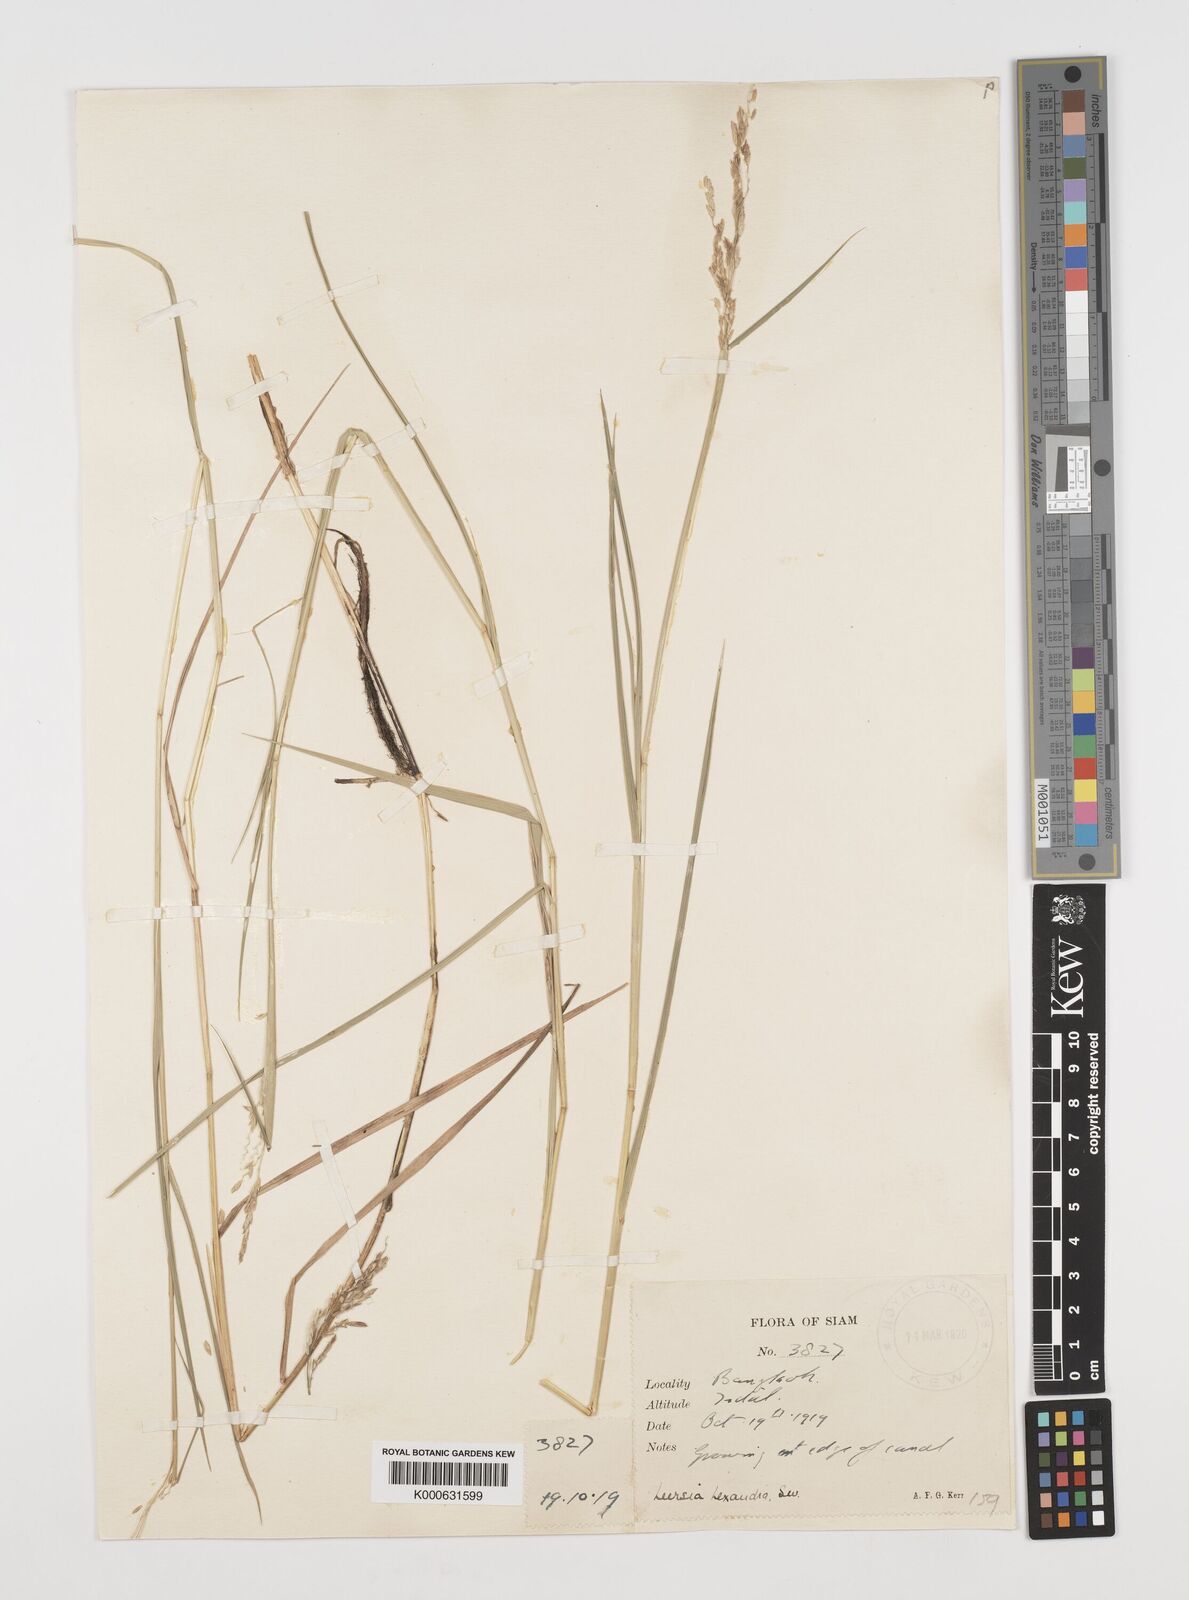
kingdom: Plantae
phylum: Tracheophyta
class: Liliopsida
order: Poales
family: Poaceae
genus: Leersia
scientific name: Leersia hexandra
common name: Southern cut grass
